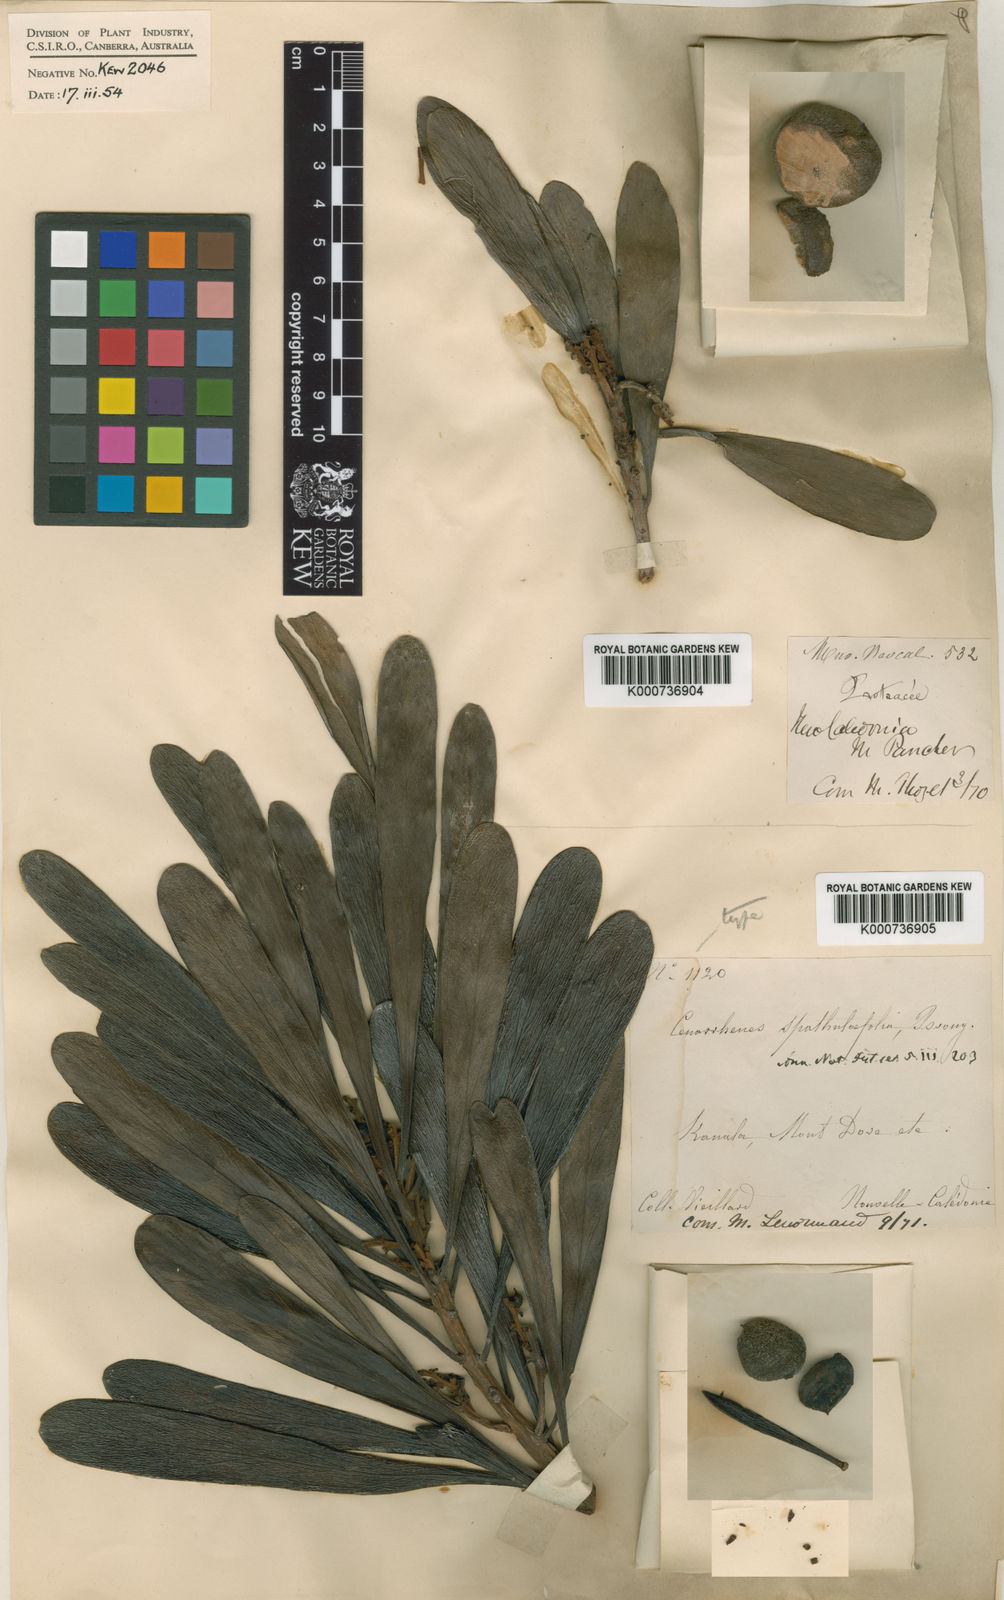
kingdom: Plantae
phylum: Tracheophyta
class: Magnoliopsida
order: Proteales
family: Proteaceae
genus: Garnieria
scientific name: Garnieria spathulifolia
